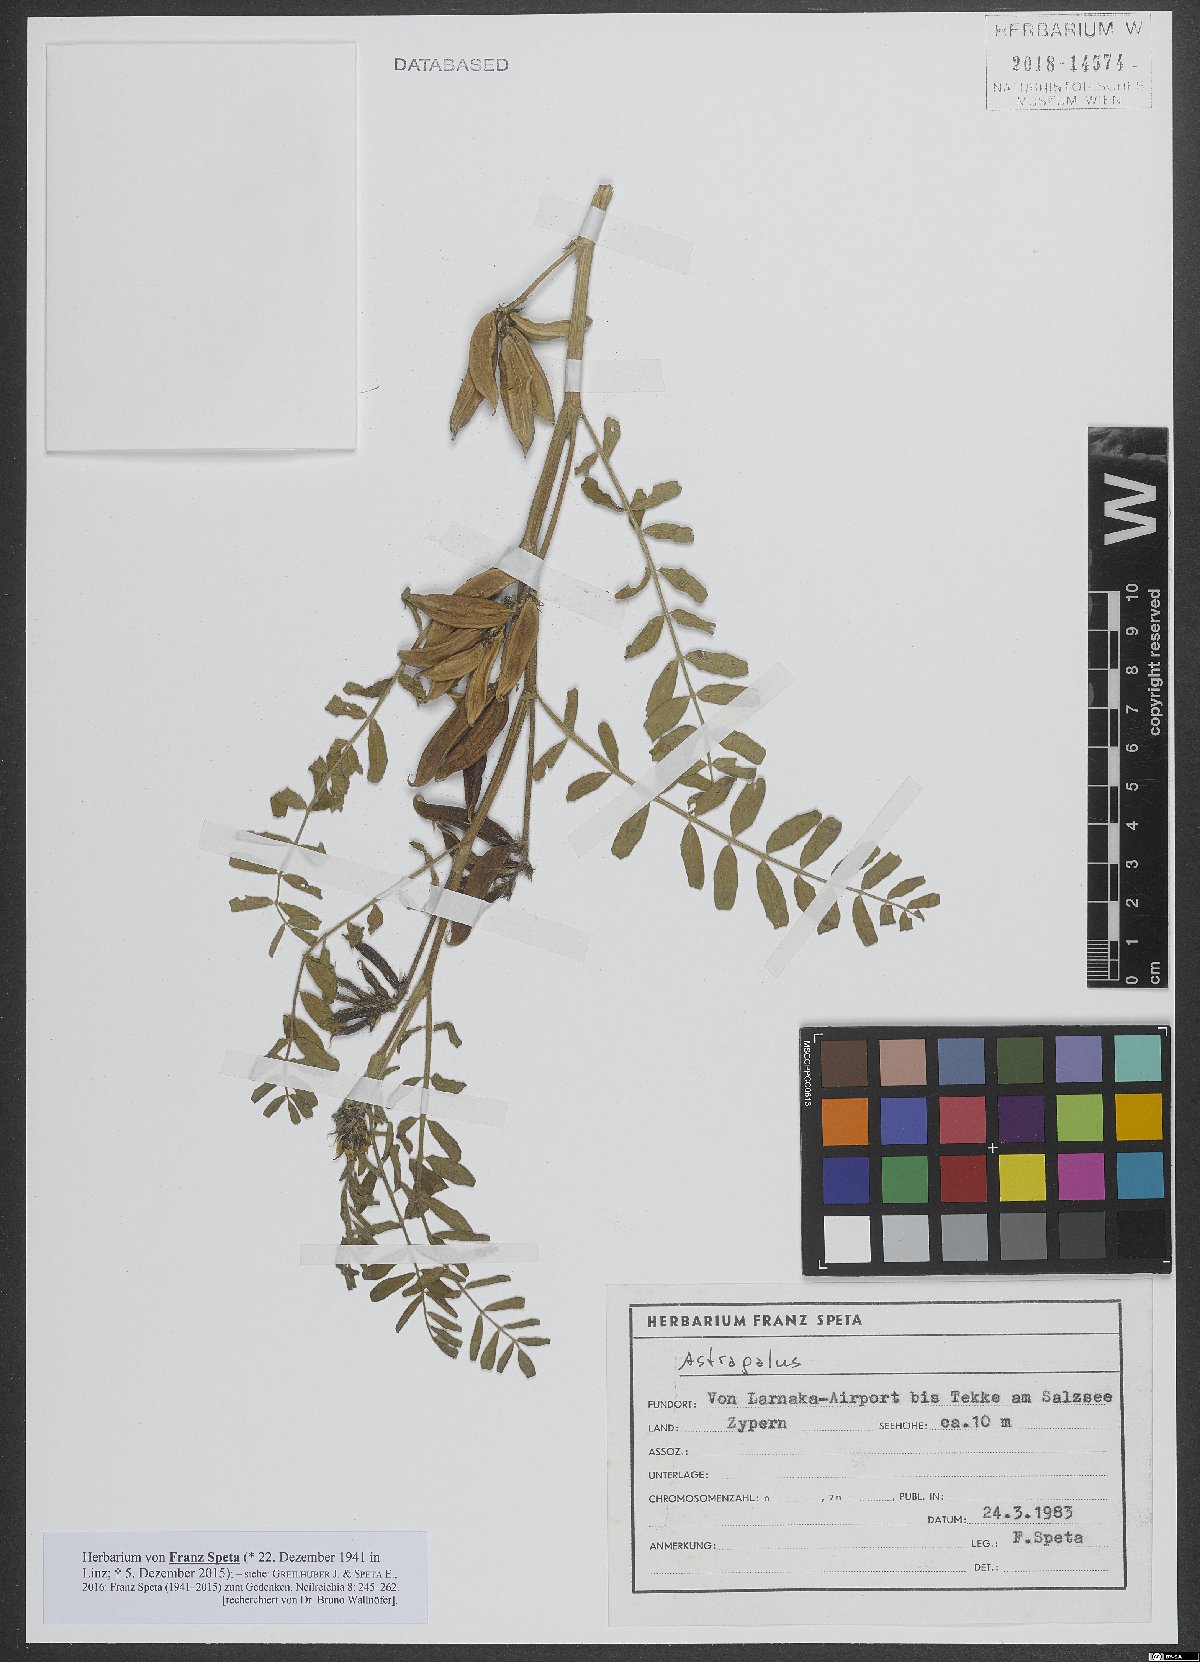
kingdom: Plantae
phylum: Tracheophyta
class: Magnoliopsida
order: Fabales
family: Fabaceae
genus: Astragalus
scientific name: Astragalus
